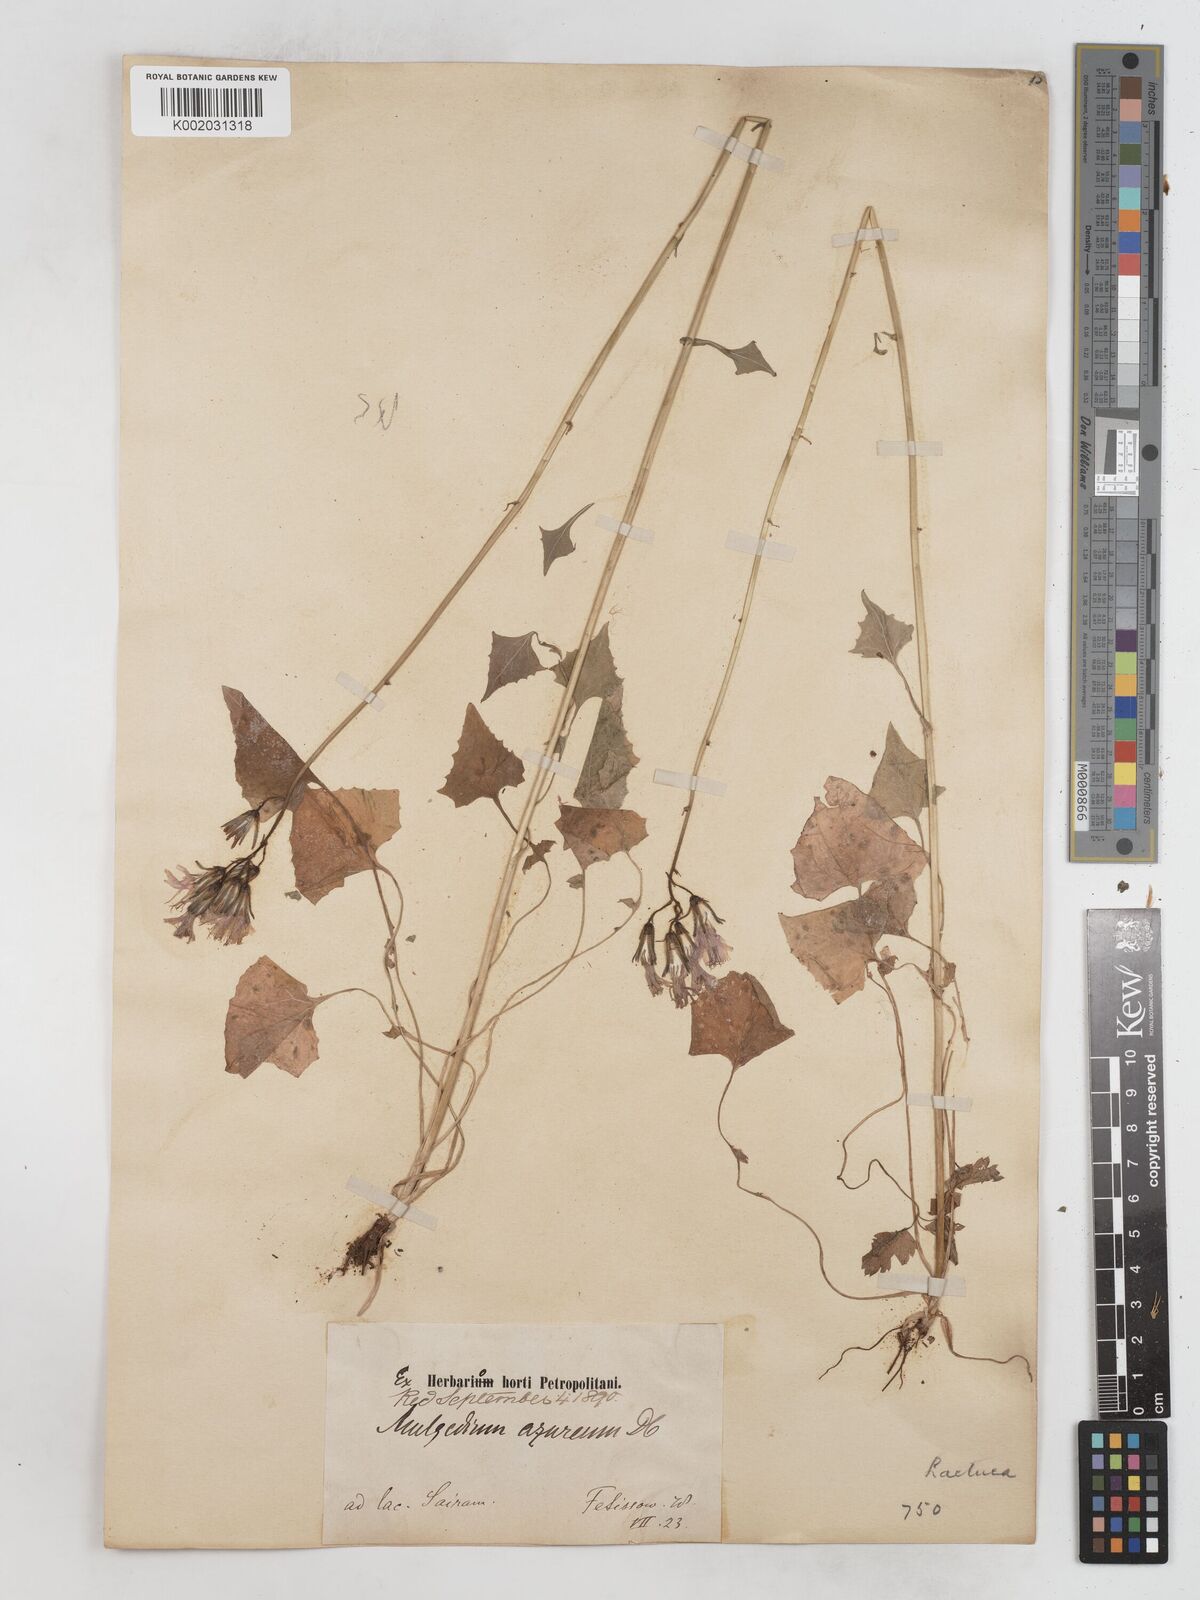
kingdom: Plantae
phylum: Tracheophyta
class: Magnoliopsida
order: Asterales
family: Asteraceae
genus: Cicerbita
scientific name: Cicerbita azurea
